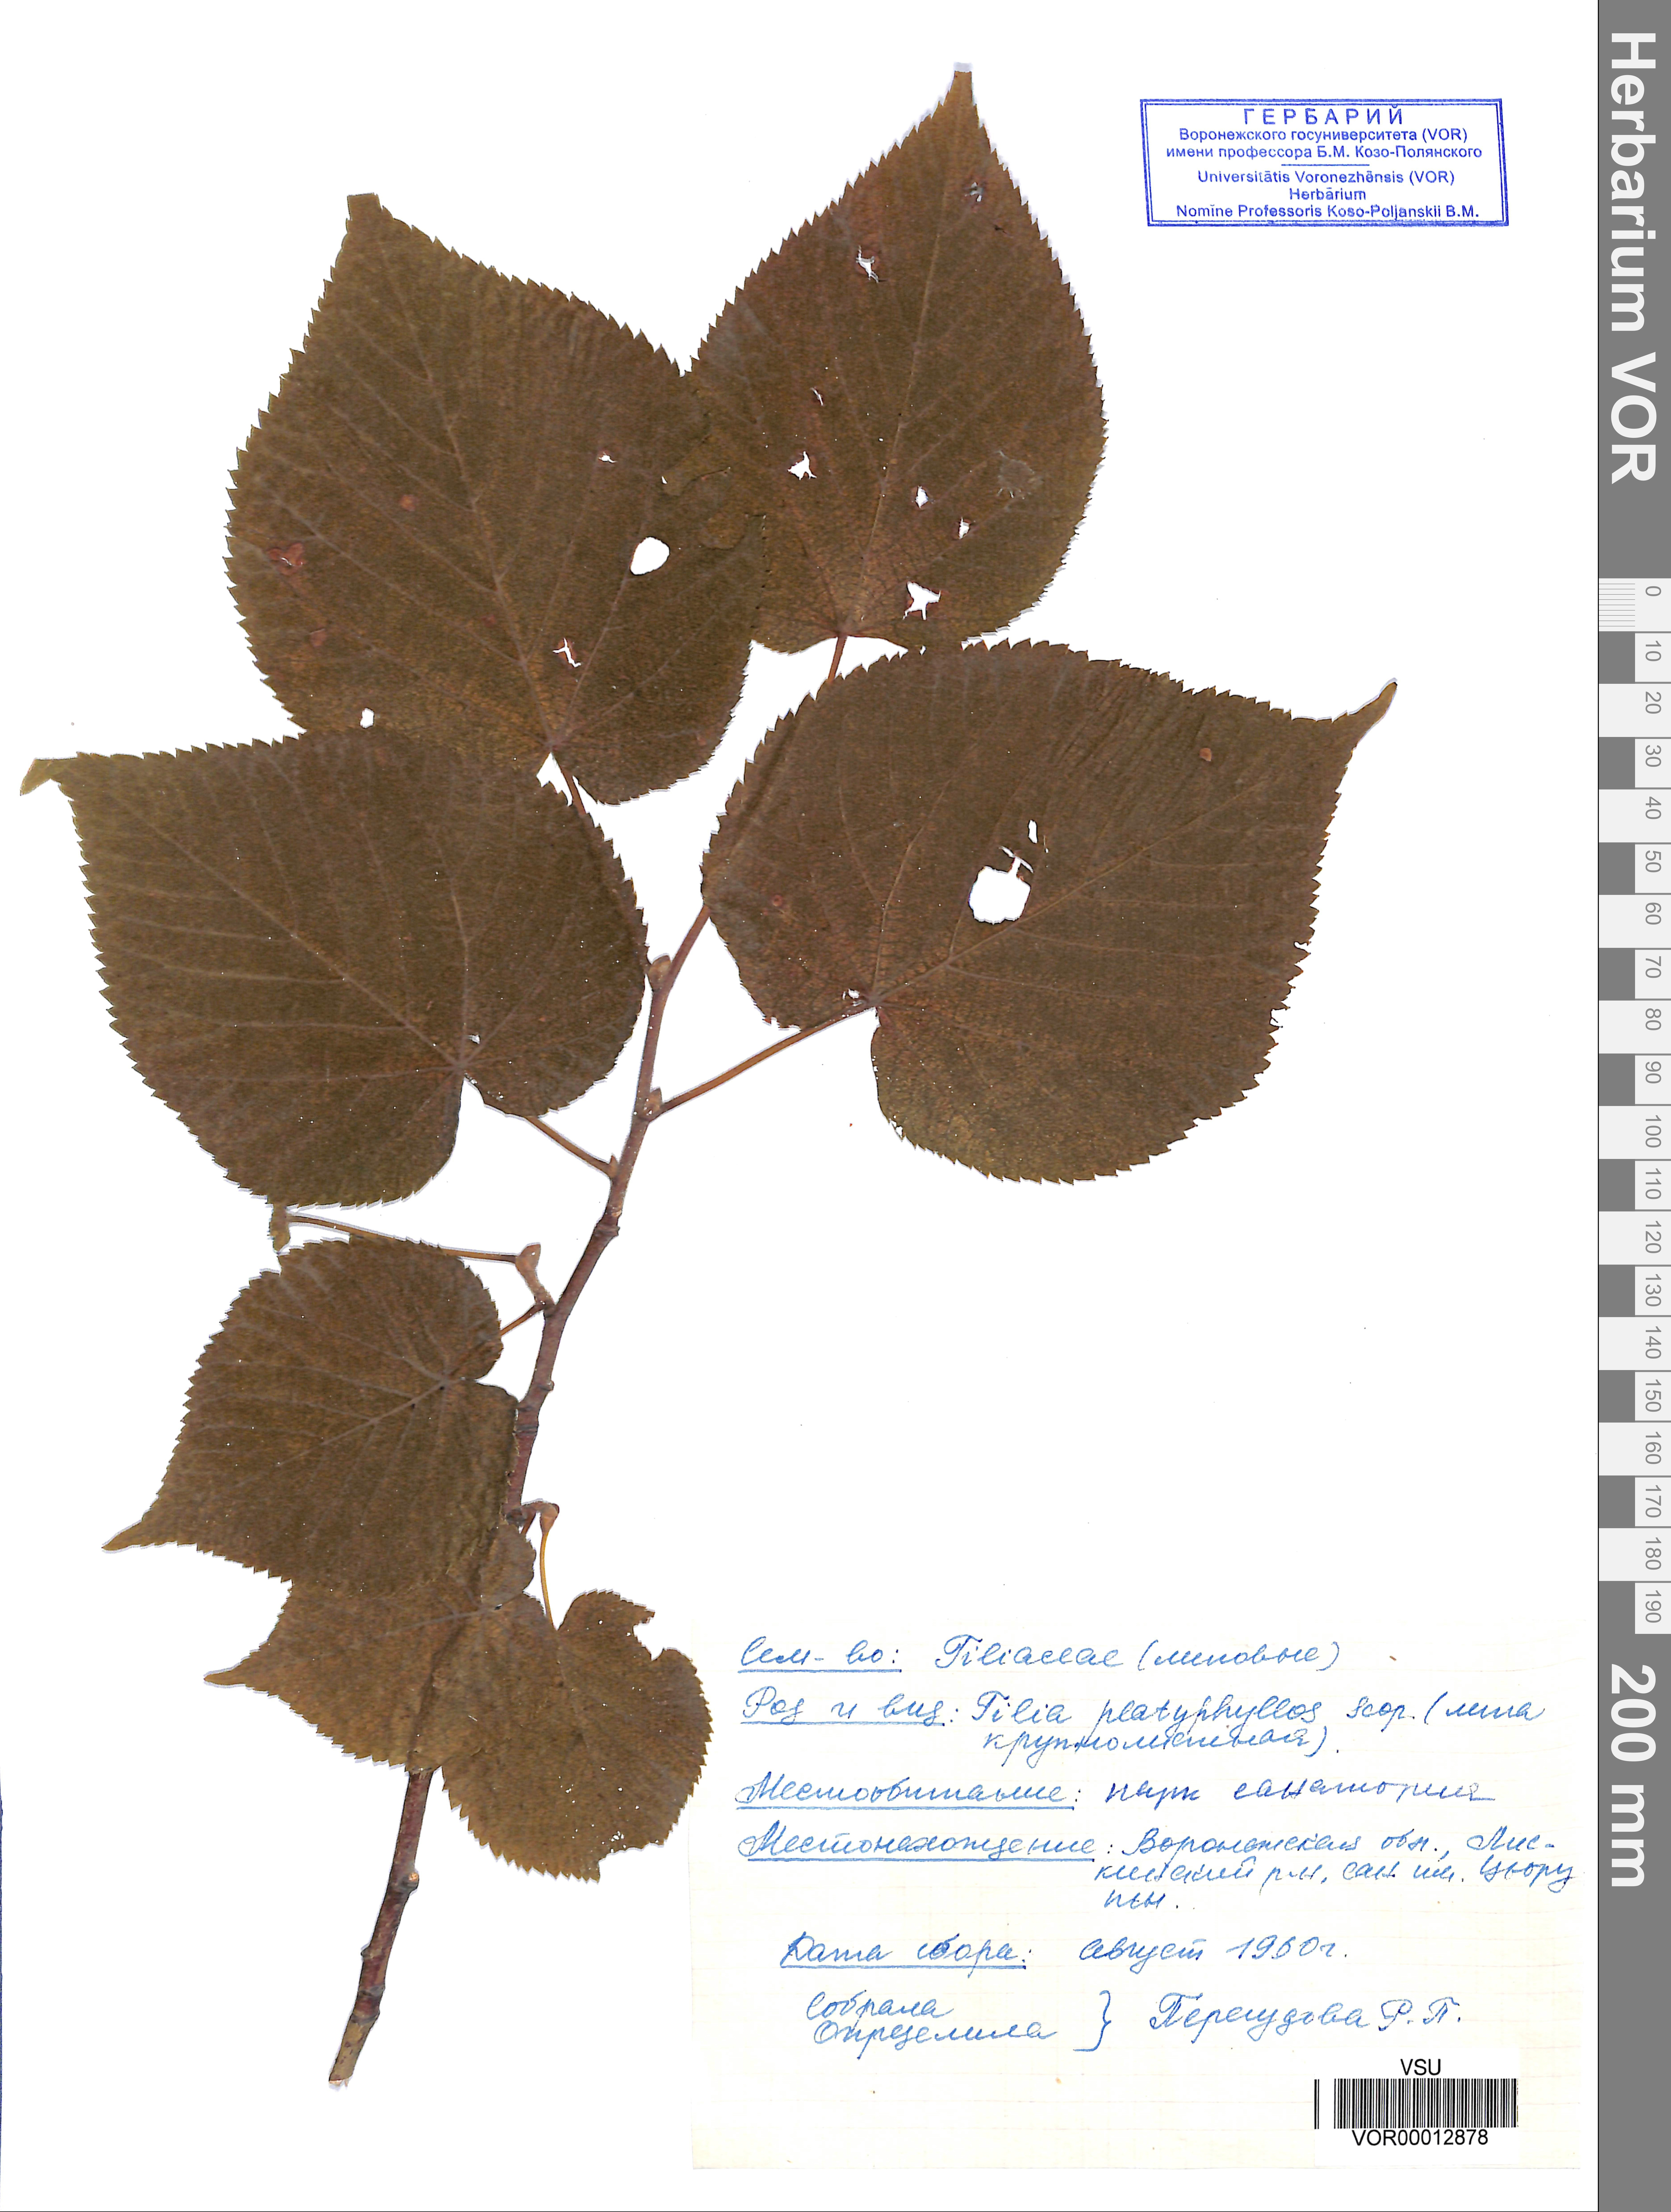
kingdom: Plantae
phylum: Tracheophyta
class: Magnoliopsida
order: Malvales
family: Malvaceae
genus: Tilia
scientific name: Tilia platyphyllos
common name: Large-leaved lime
